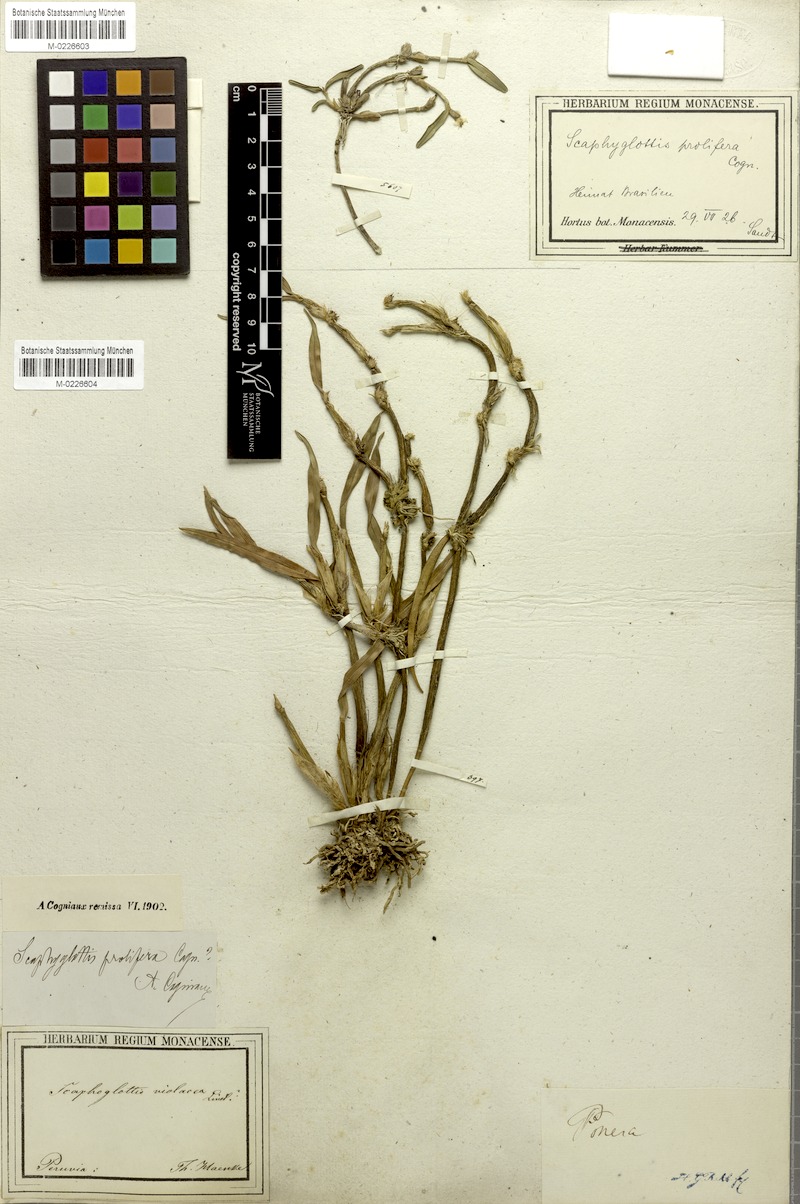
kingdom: Plantae
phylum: Tracheophyta
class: Liliopsida
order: Asparagales
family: Orchidaceae
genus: Scaphyglottis
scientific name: Scaphyglottis prolifera
